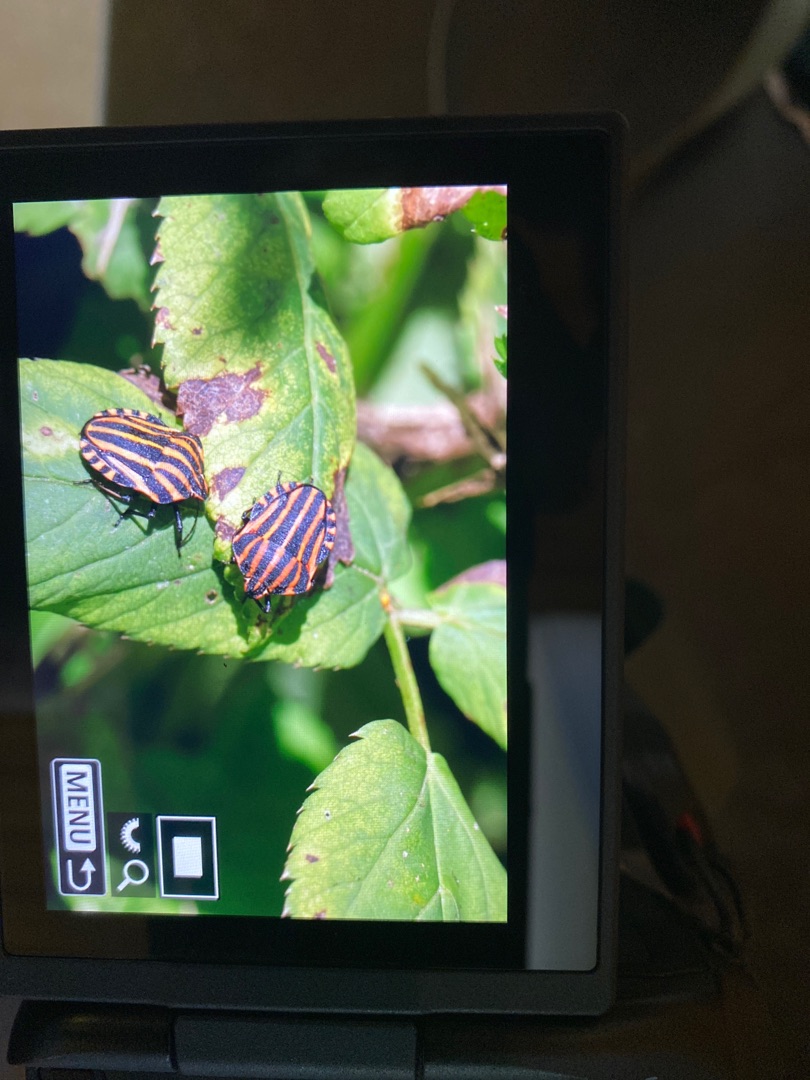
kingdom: Animalia
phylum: Arthropoda
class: Insecta
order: Hemiptera
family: Pentatomidae
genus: Graphosoma
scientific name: Graphosoma italicum
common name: Stribetæge
